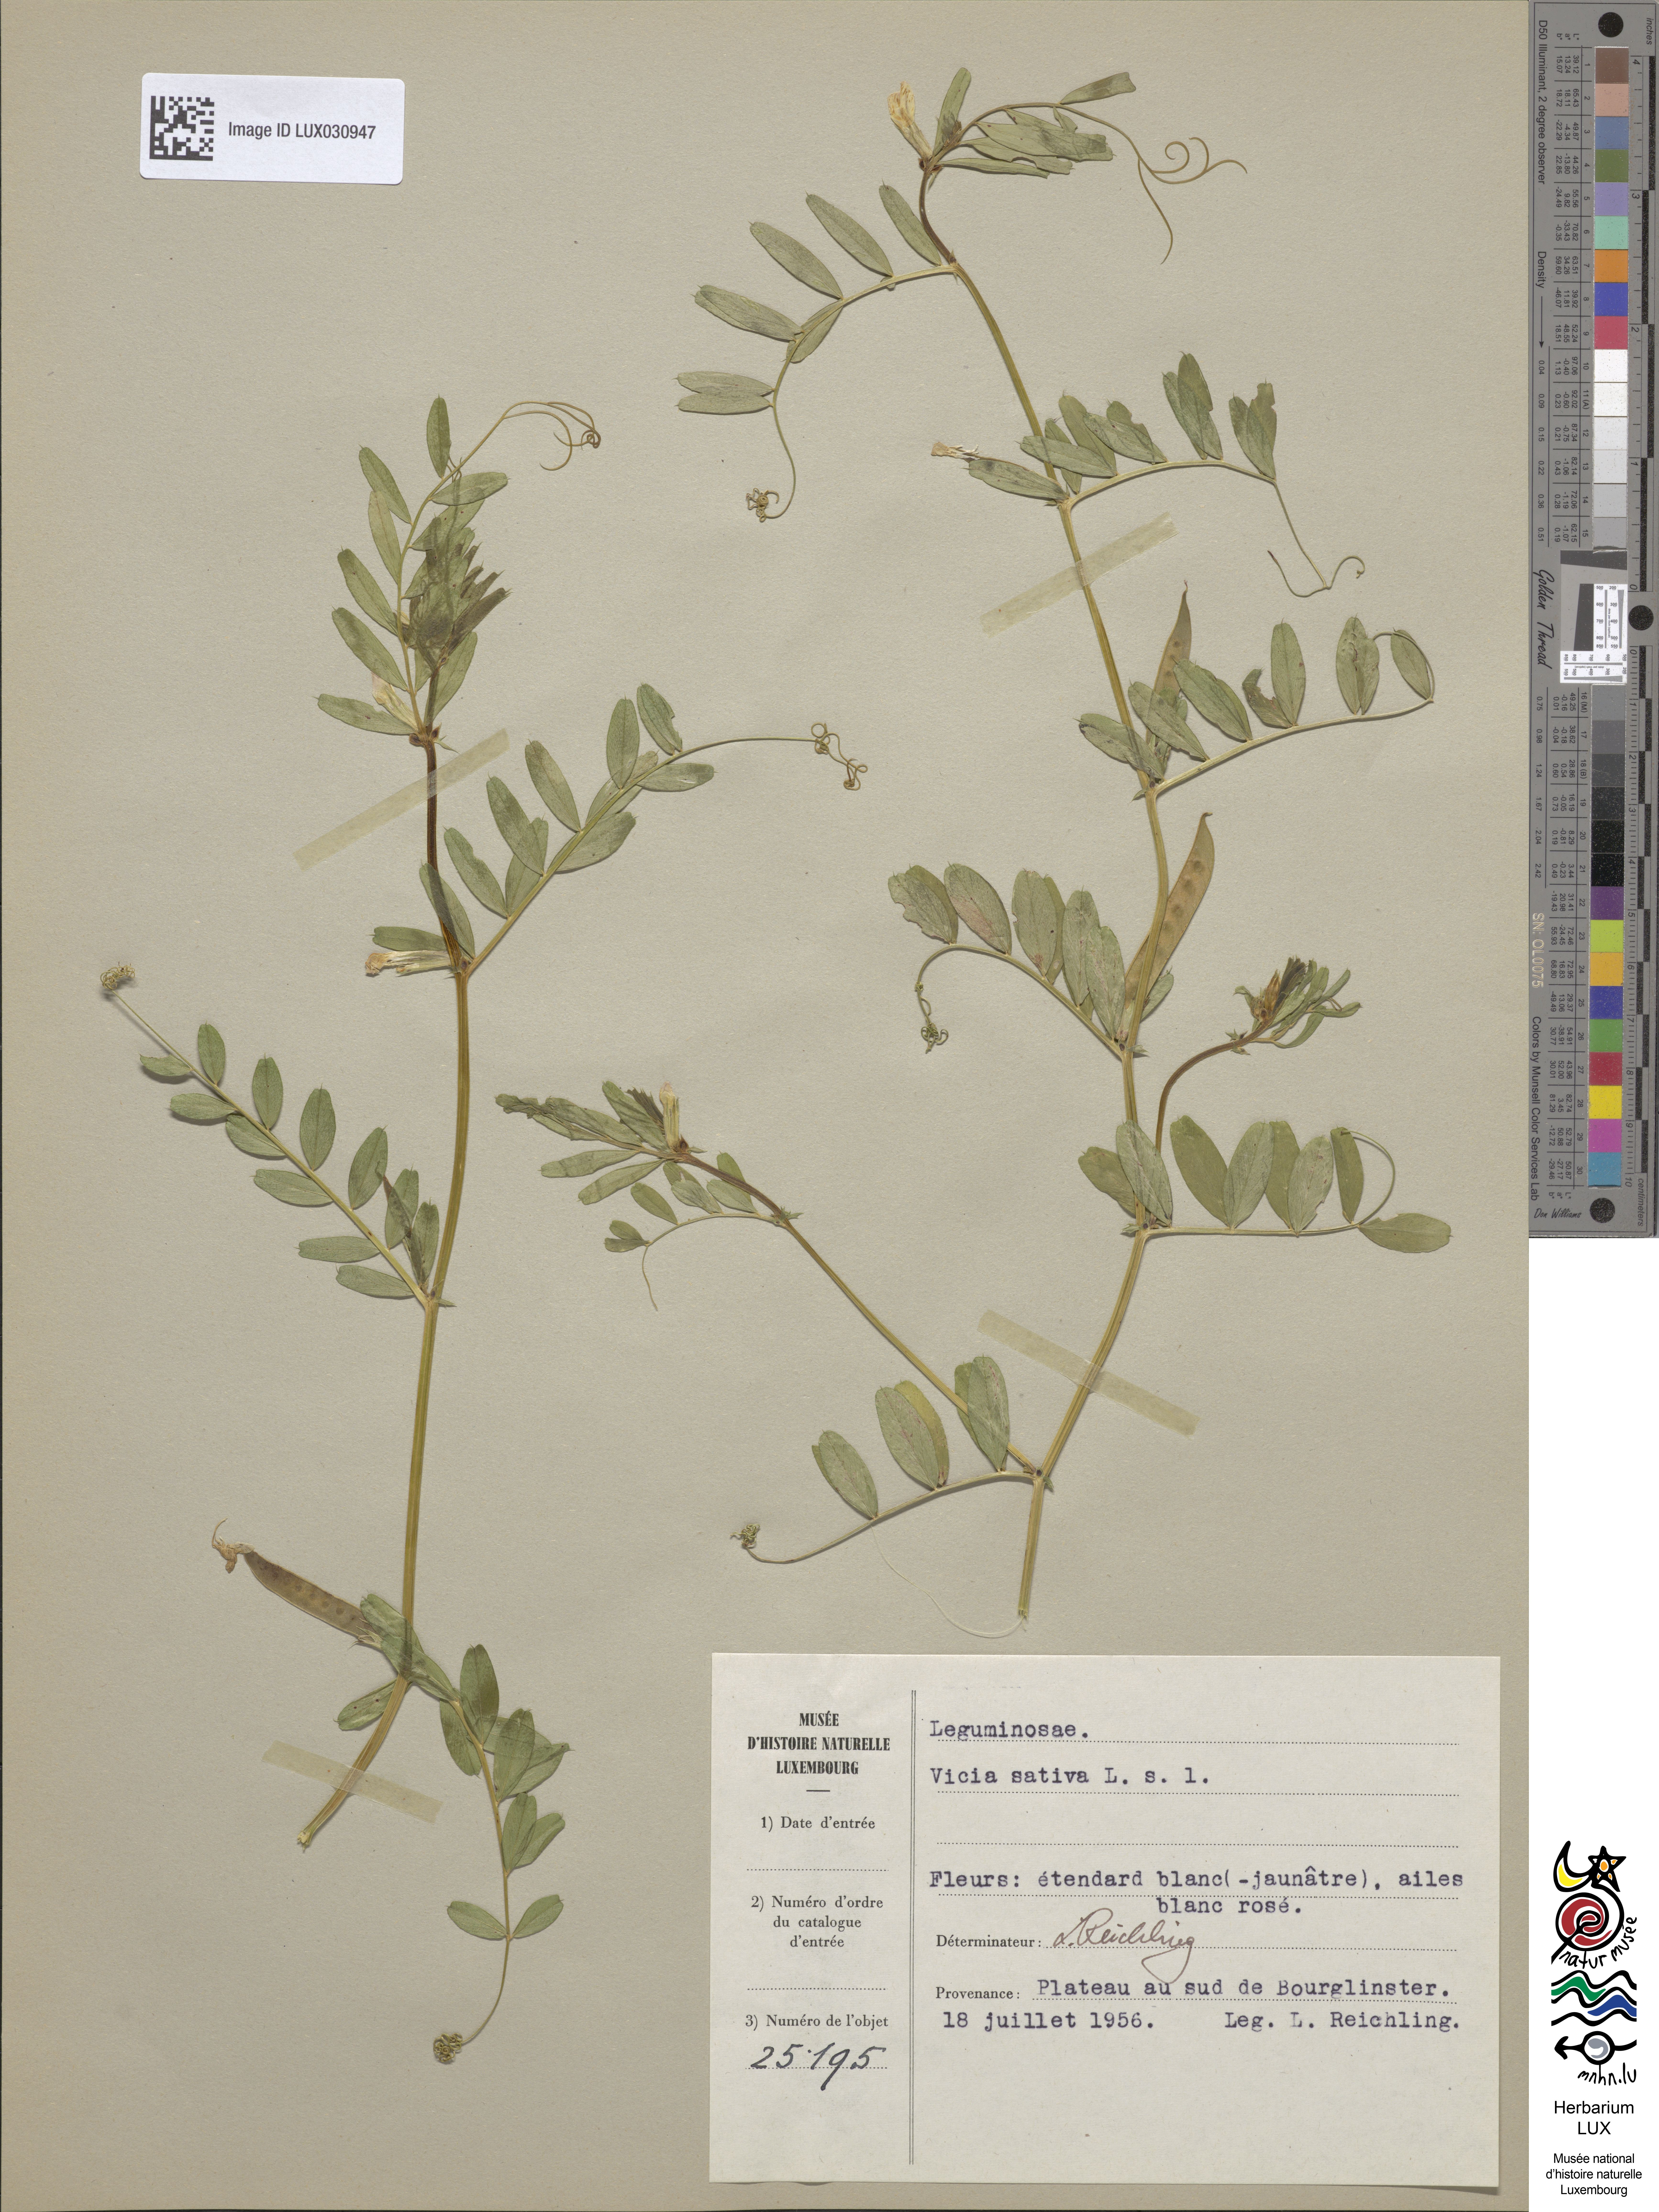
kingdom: Plantae
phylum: Tracheophyta
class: Magnoliopsida
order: Fabales
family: Fabaceae
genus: Vicia
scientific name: Vicia sativa
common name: Garden vetch
